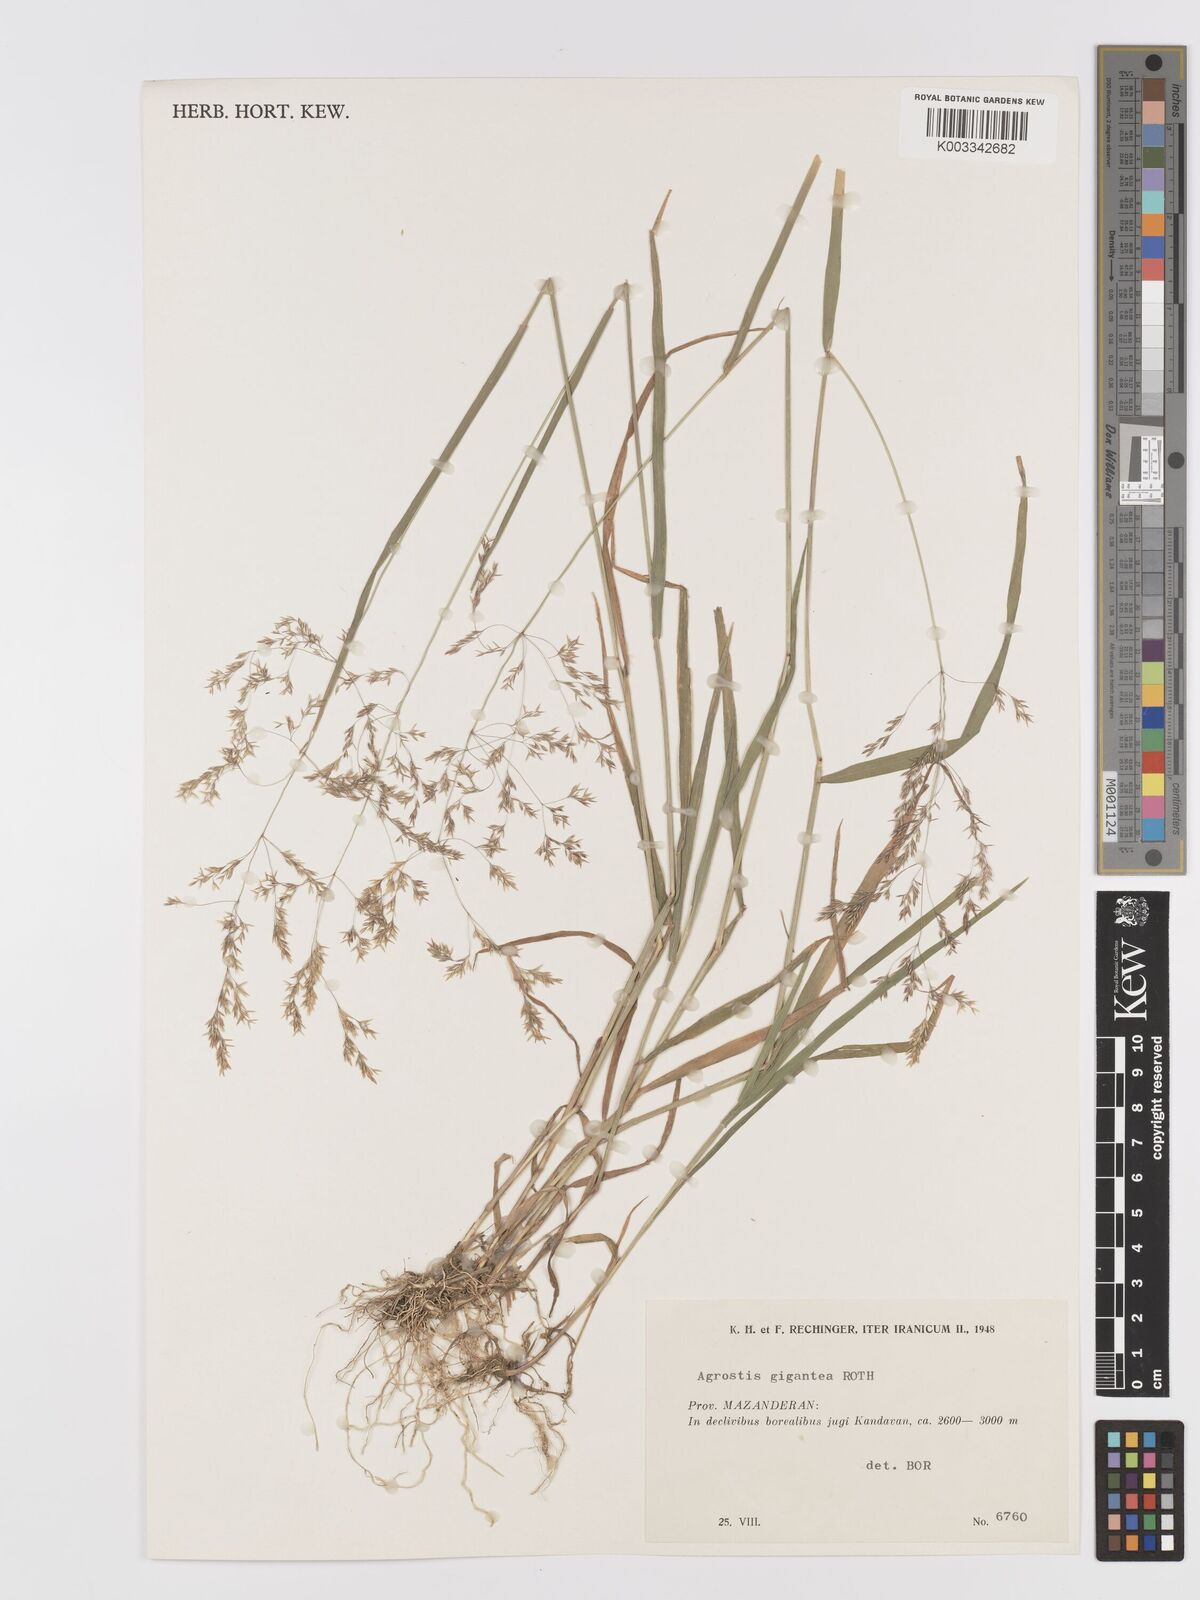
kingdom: Plantae
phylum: Tracheophyta
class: Liliopsida
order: Poales
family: Poaceae
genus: Agrostis
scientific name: Agrostis gigantea
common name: Black bent
